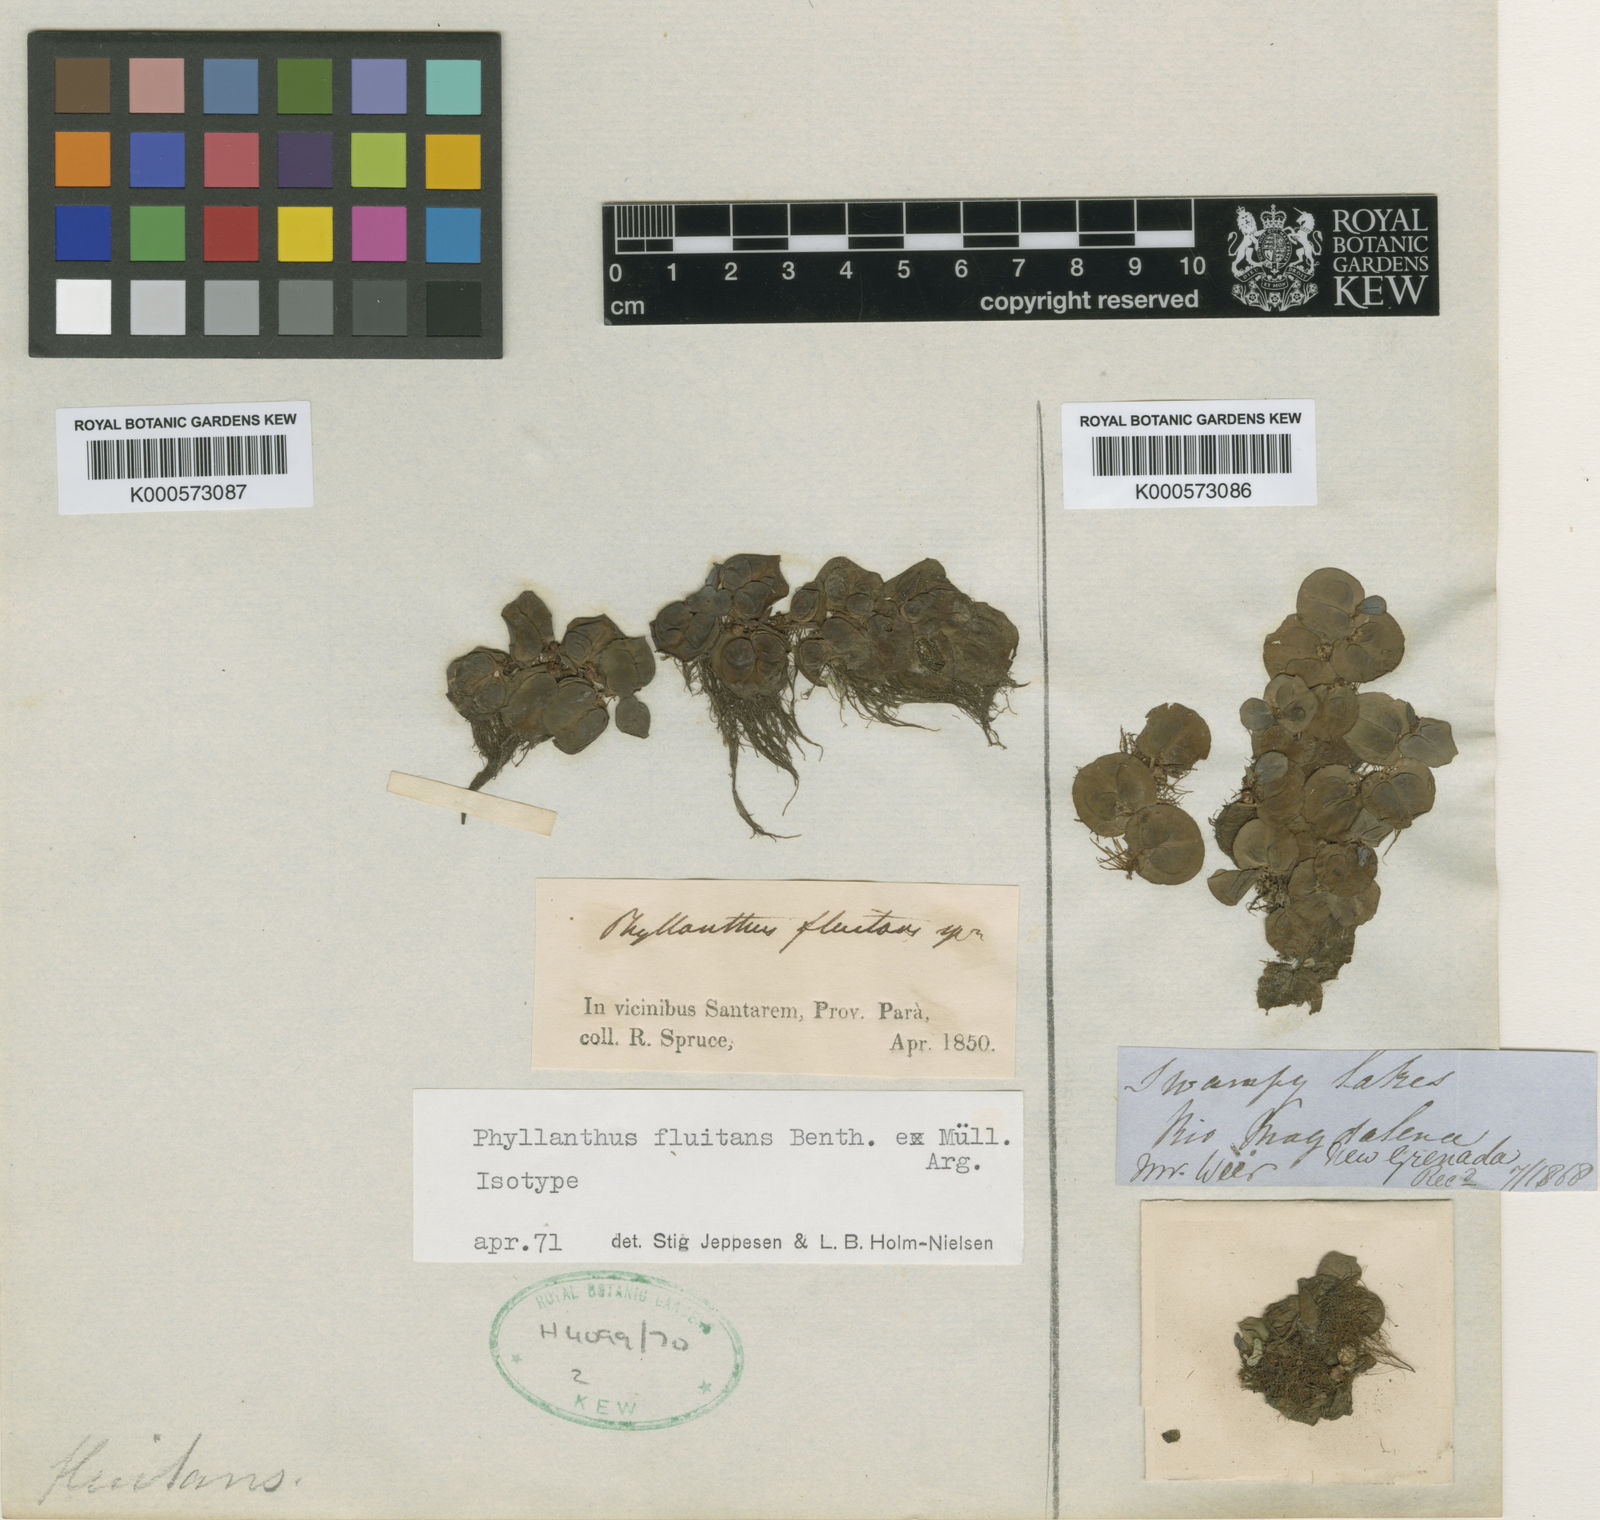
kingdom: Plantae
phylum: Tracheophyta
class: Magnoliopsida
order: Malpighiales
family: Phyllanthaceae
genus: Phyllanthus
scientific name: Phyllanthus
